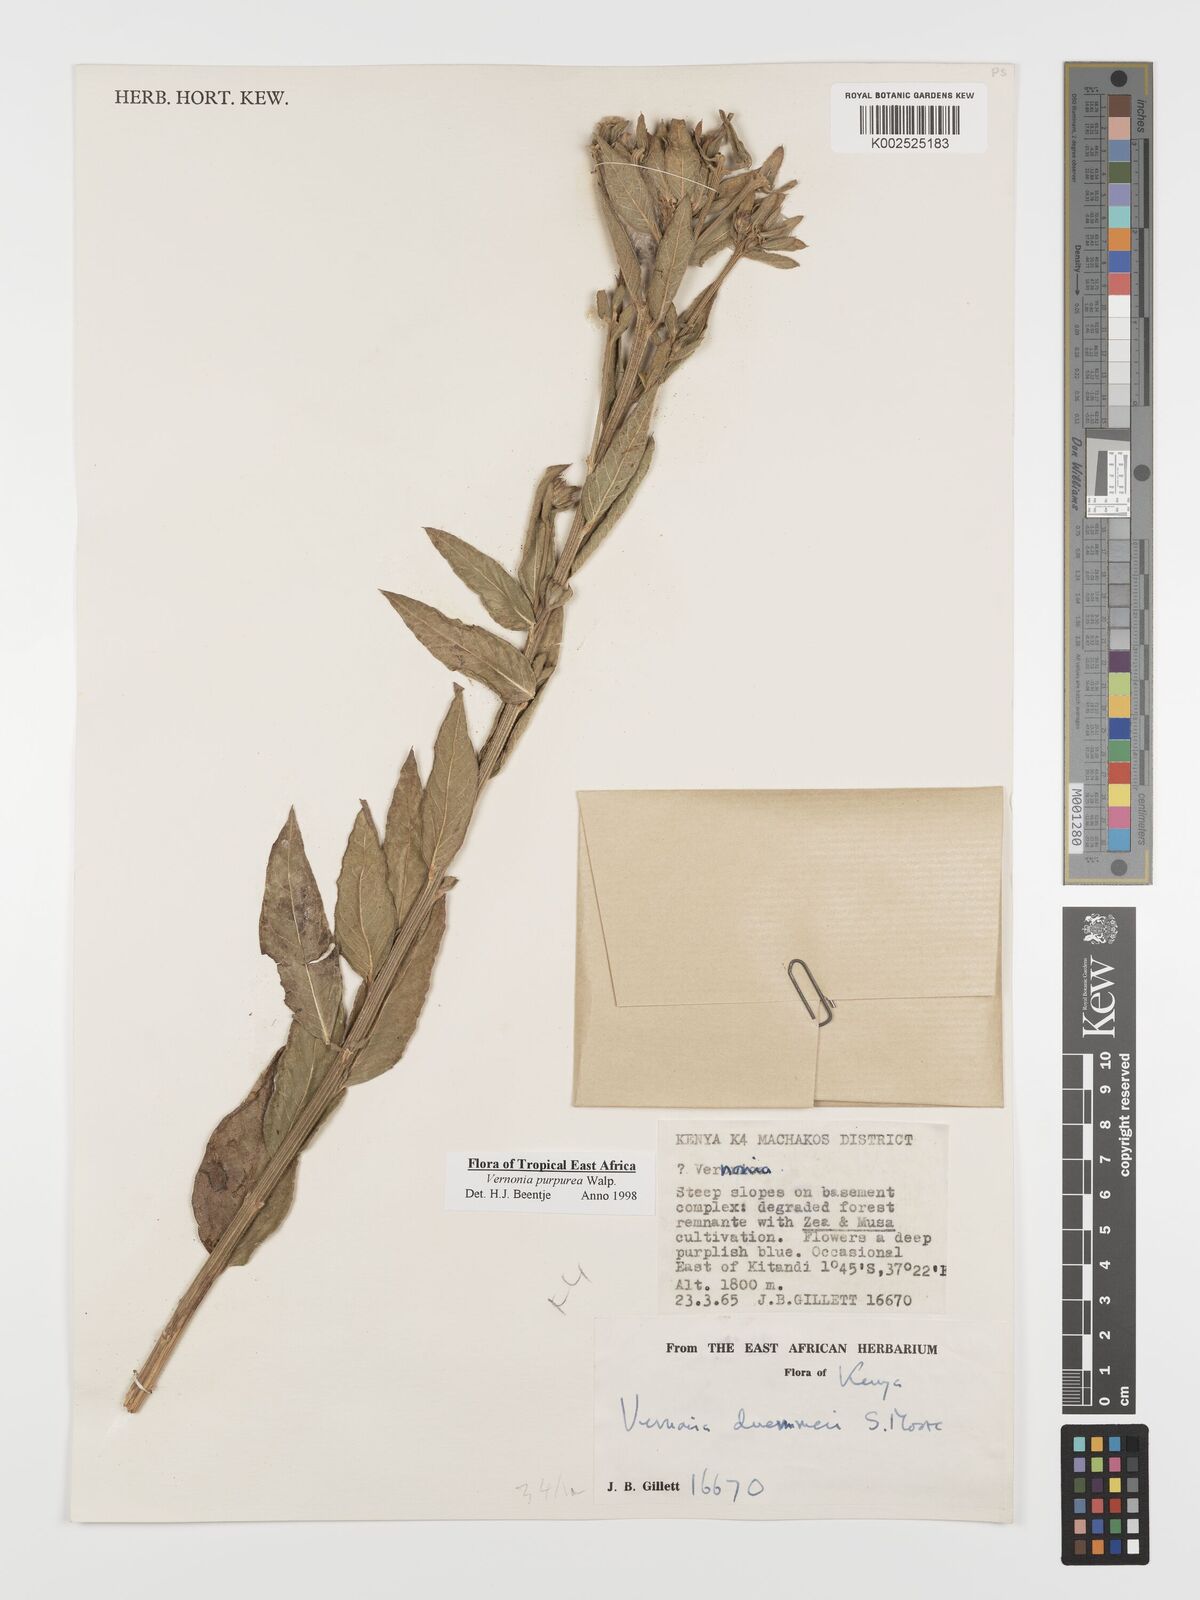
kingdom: Plantae
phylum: Tracheophyta
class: Magnoliopsida
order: Asterales
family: Asteraceae
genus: Nothovernonia
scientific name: Nothovernonia purpurea
